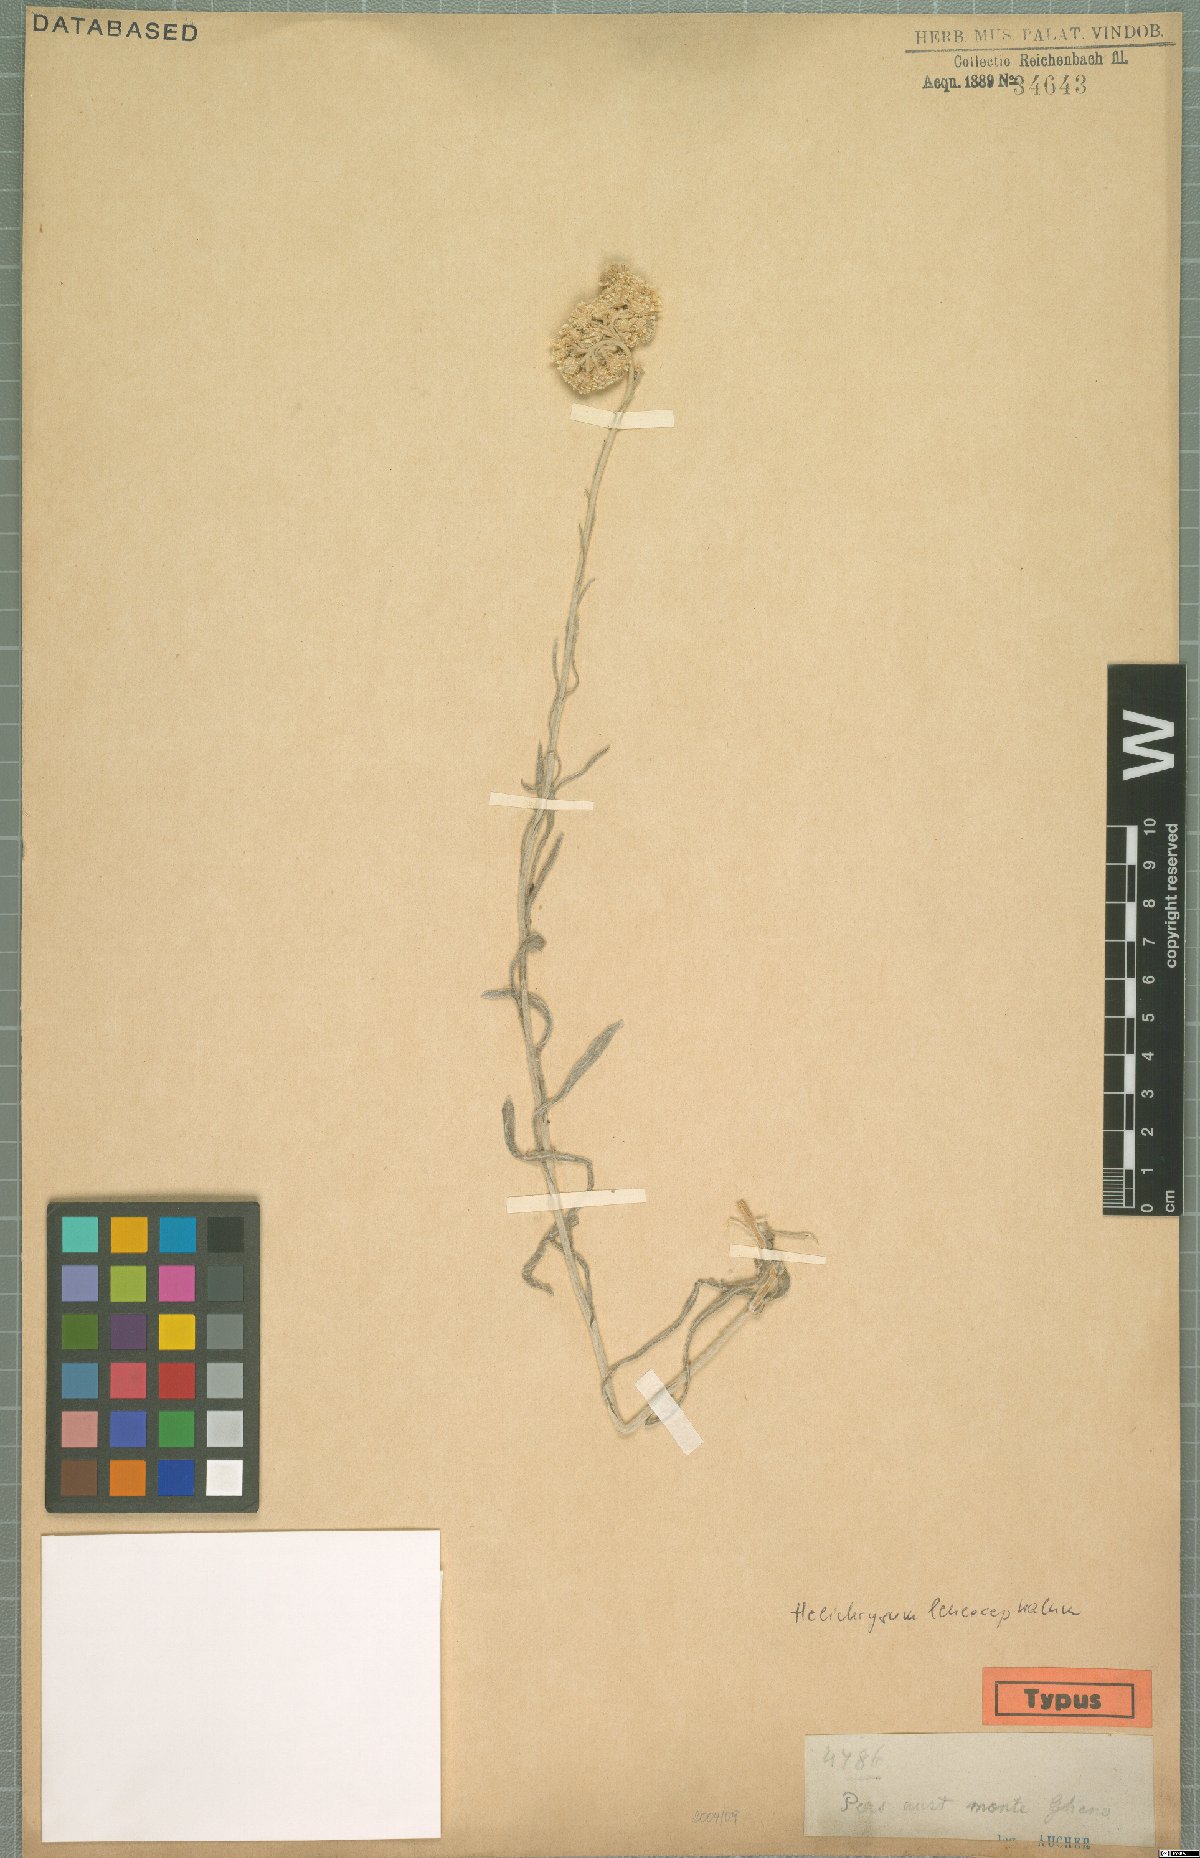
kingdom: Plantae
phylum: Tracheophyta
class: Magnoliopsida
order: Asterales
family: Asteraceae
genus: Helichrysum
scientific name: Helichrysum leucocephalum
